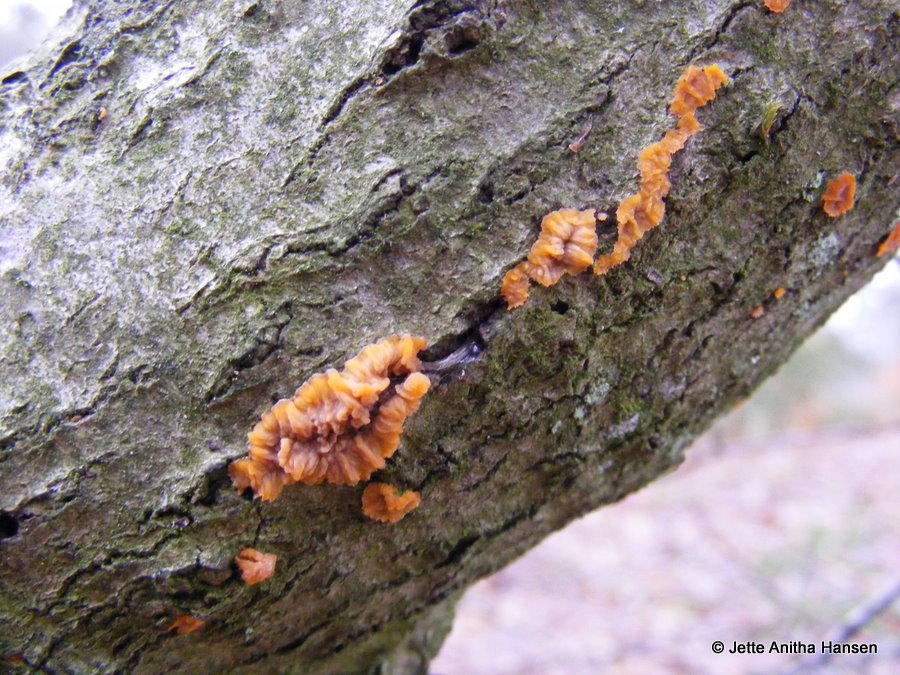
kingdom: Fungi
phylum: Basidiomycota
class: Agaricomycetes
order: Polyporales
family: Meruliaceae
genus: Phlebia
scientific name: Phlebia radiata
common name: stråle-åresvamp
